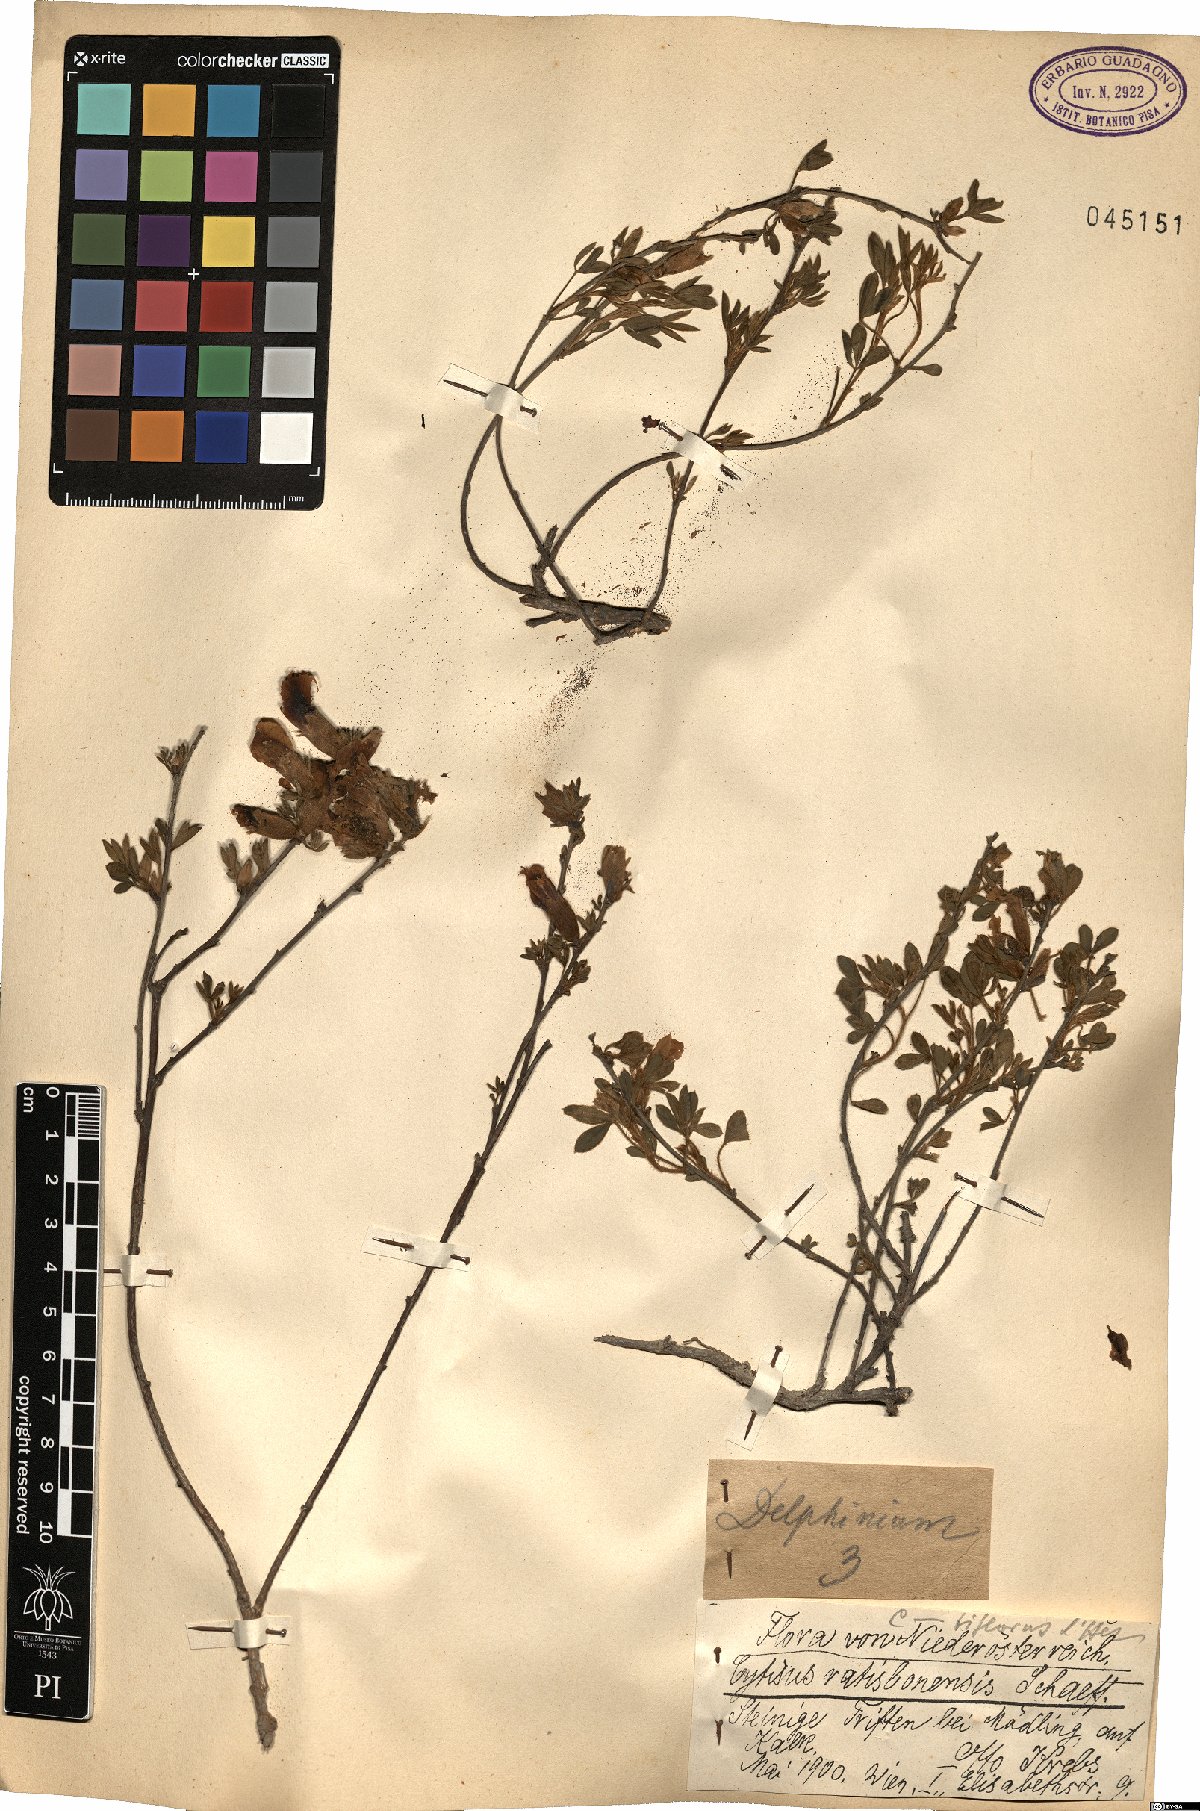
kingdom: Plantae
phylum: Tracheophyta
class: Magnoliopsida
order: Fabales
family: Fabaceae
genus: Chamaecytisus
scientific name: Chamaecytisus ratisbonensis
